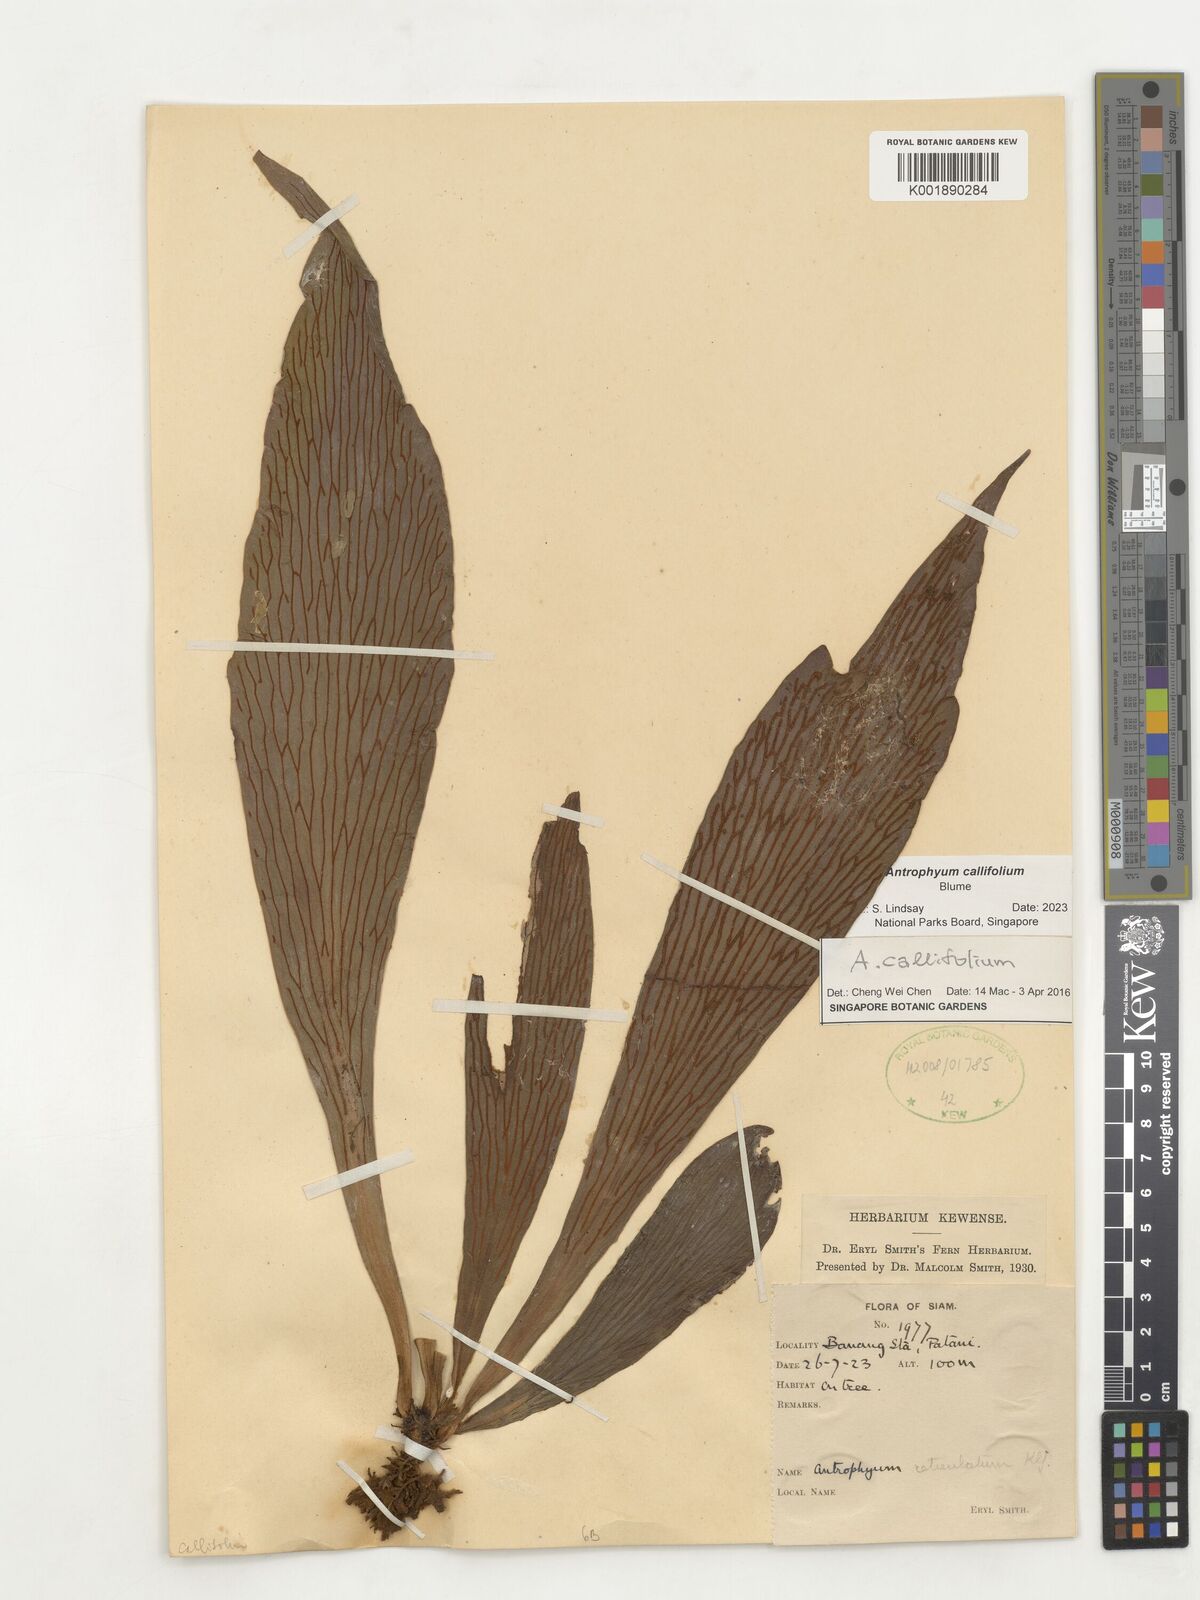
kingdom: Plantae
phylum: Tracheophyta
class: Polypodiopsida
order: Polypodiales
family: Pteridaceae
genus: Antrophyum
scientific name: Antrophyum callifolium
